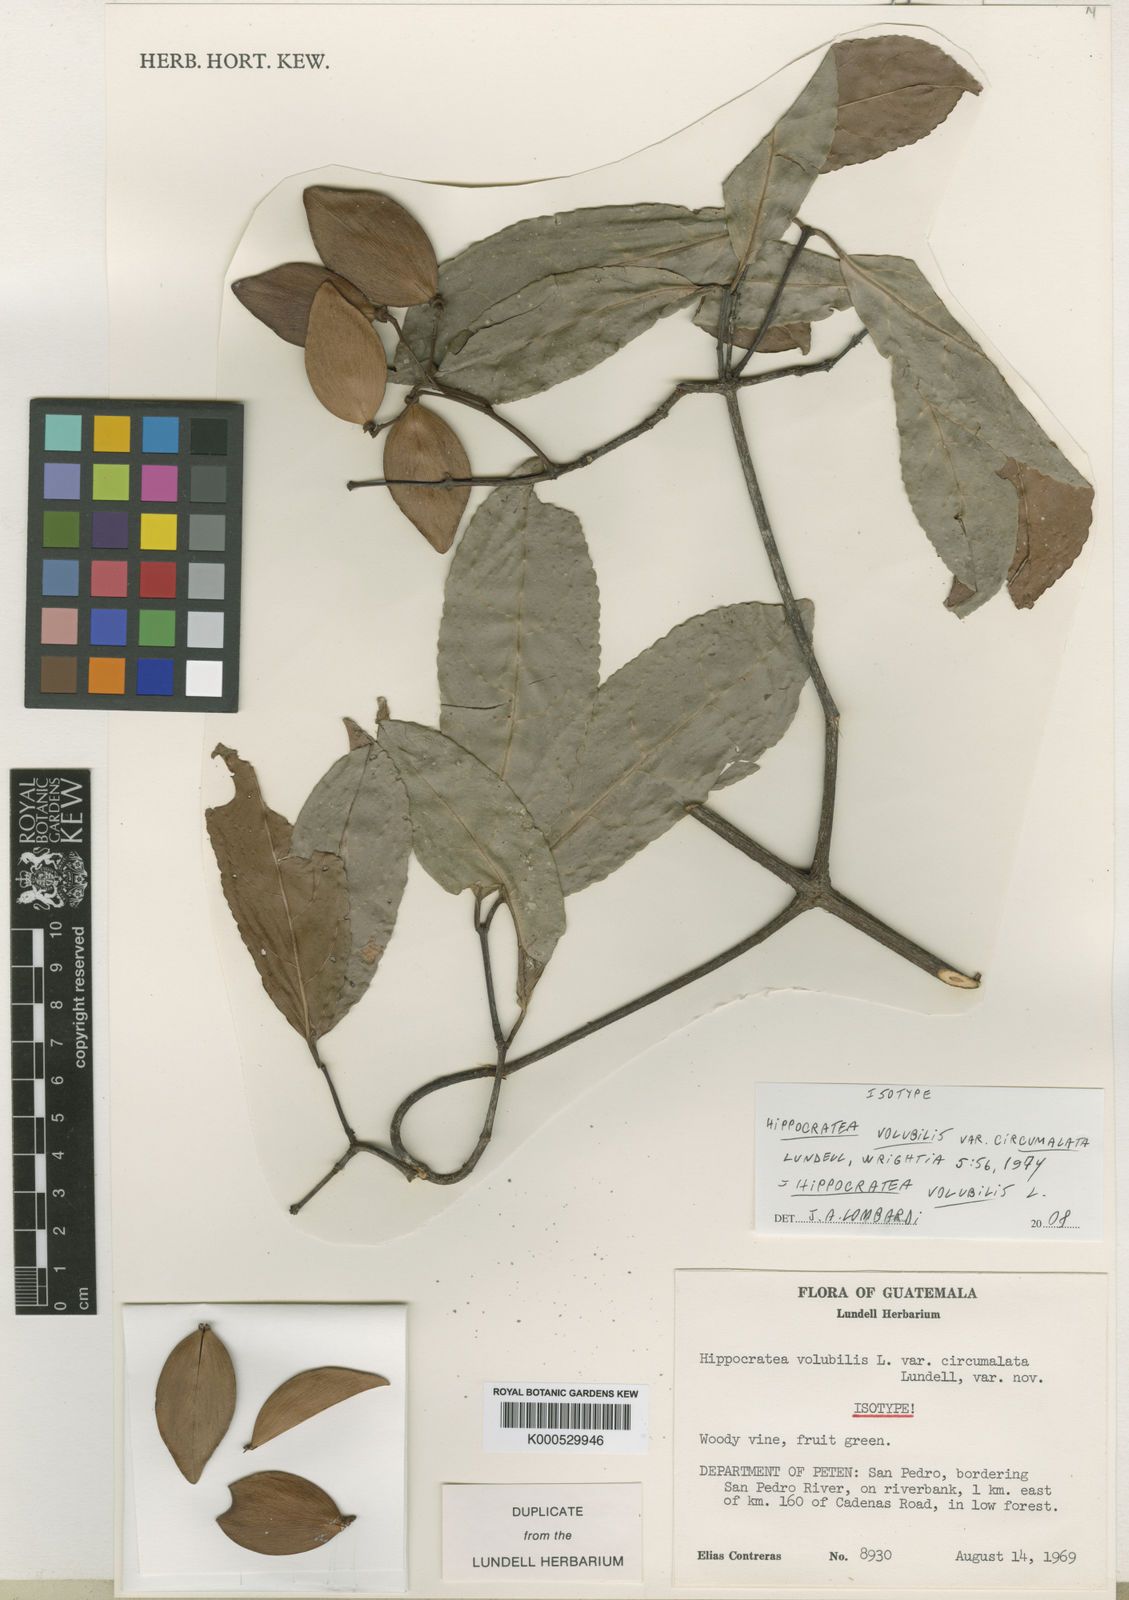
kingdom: Plantae
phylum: Tracheophyta
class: Magnoliopsida
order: Celastrales
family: Celastraceae
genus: Hippocratea
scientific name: Hippocratea volubilis
